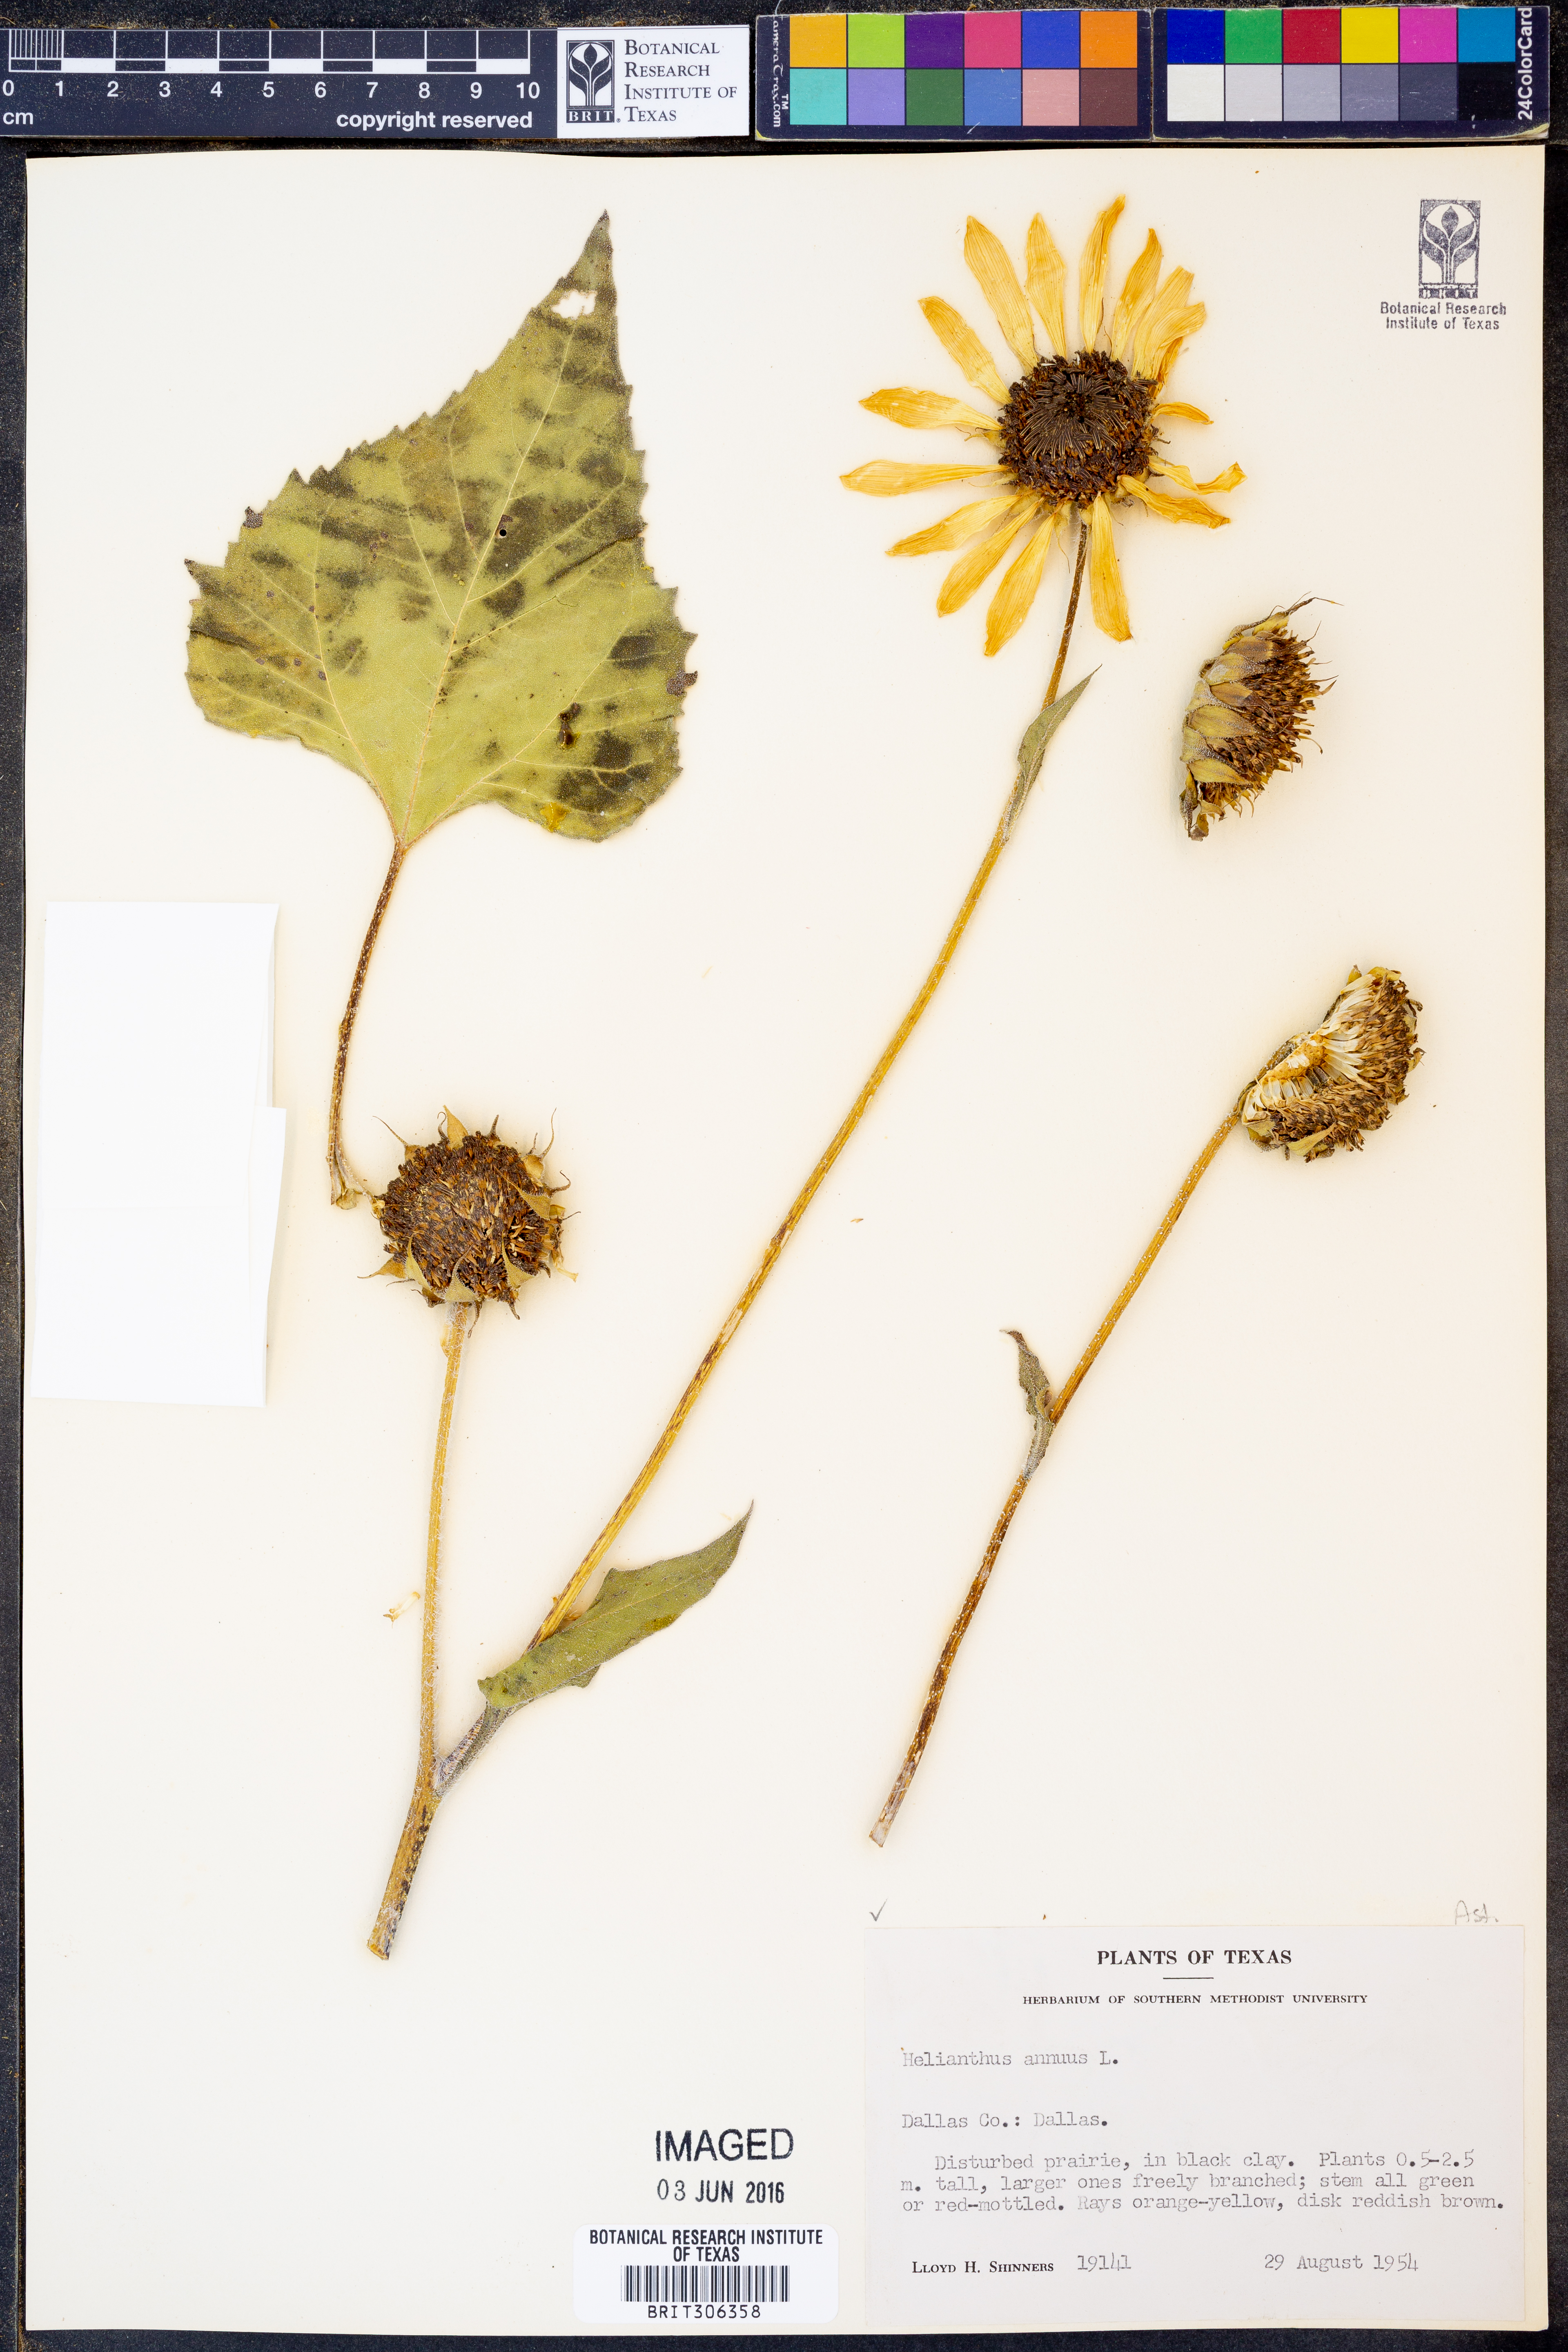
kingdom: Plantae
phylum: Tracheophyta
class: Magnoliopsida
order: Asterales
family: Asteraceae
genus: Helianthus
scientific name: Helianthus annuus
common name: Sunflower
